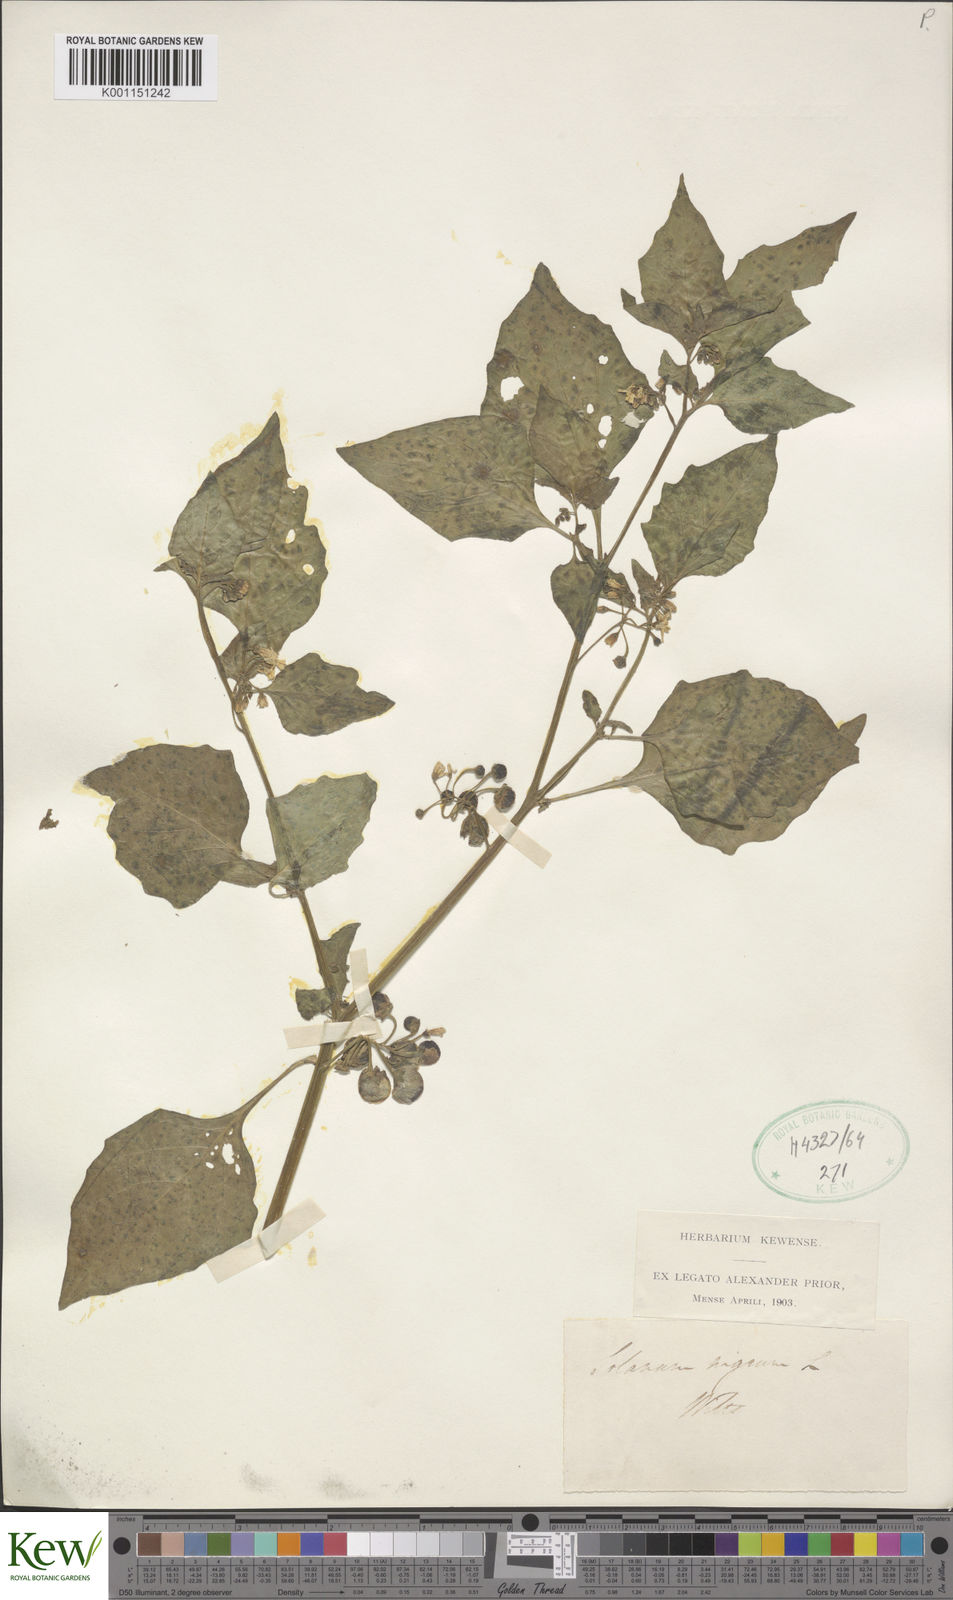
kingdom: Plantae
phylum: Tracheophyta
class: Magnoliopsida
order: Solanales
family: Solanaceae
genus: Solanum
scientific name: Solanum nigrum
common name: Black nightshade
